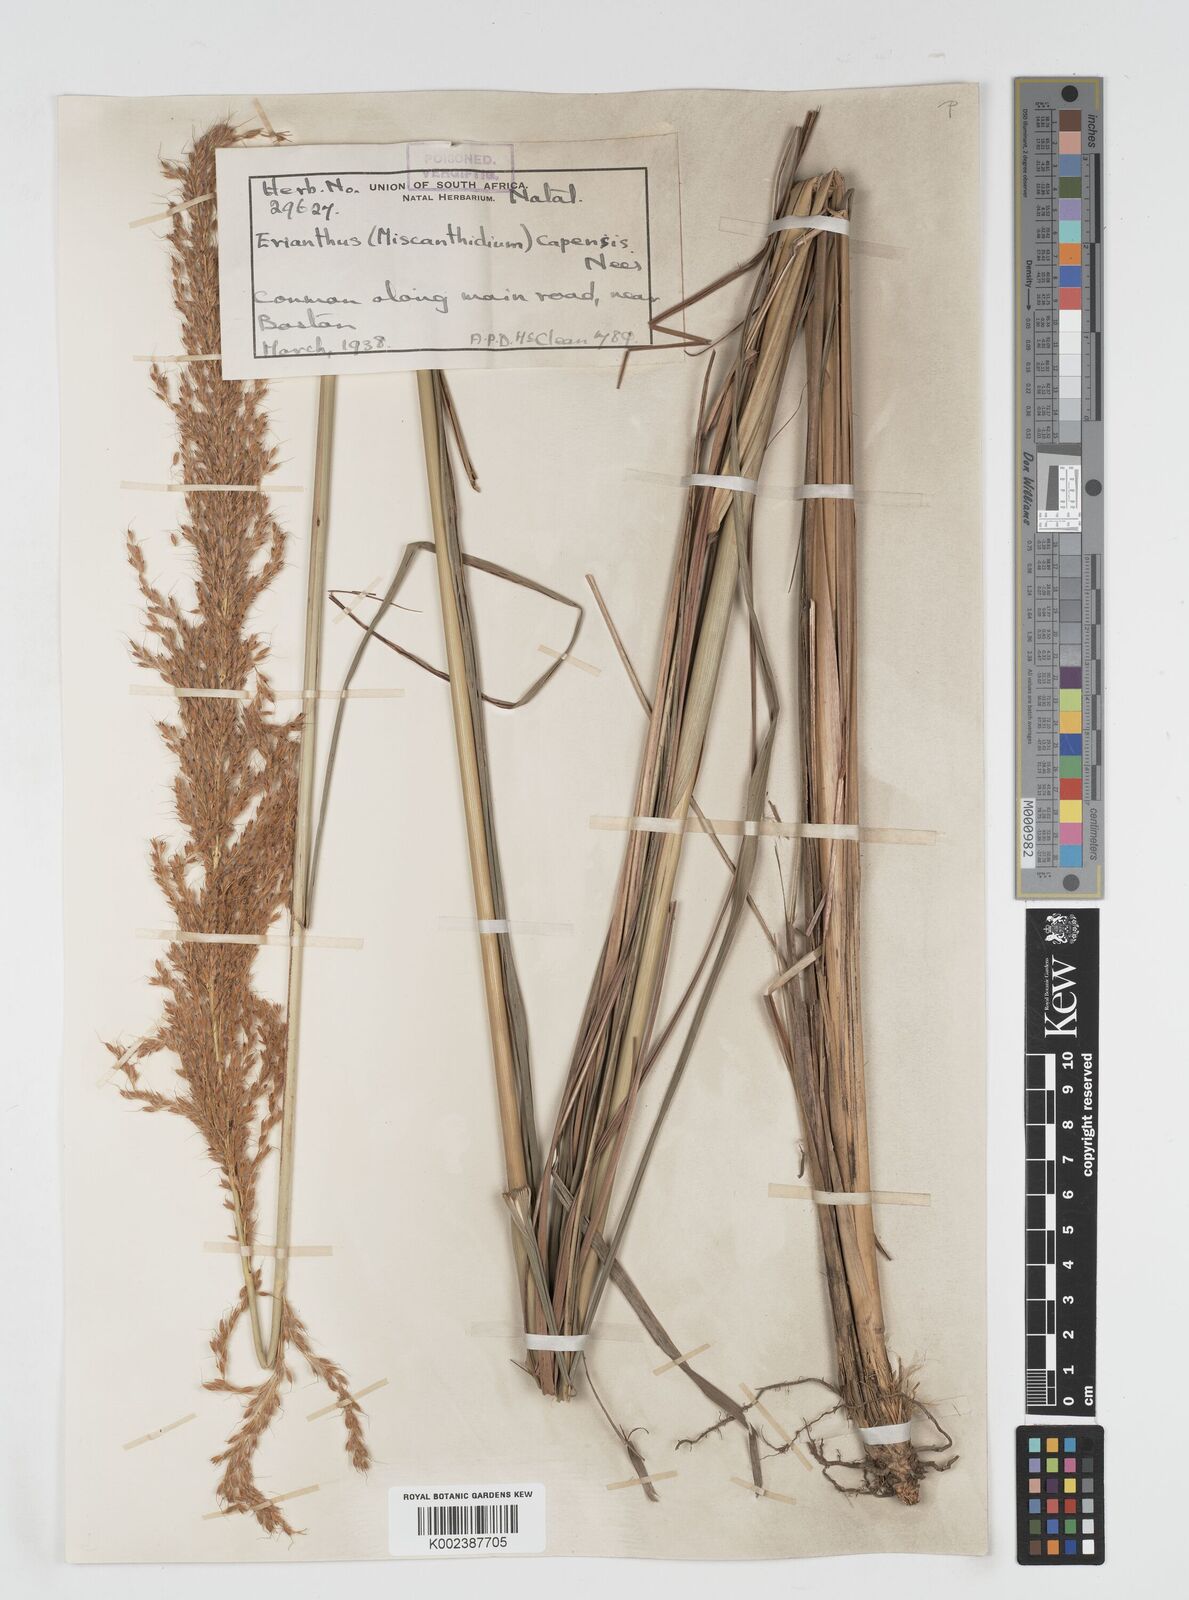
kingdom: Plantae
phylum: Tracheophyta
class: Liliopsida
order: Poales
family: Poaceae
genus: Miscanthus
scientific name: Miscanthus ecklonii
